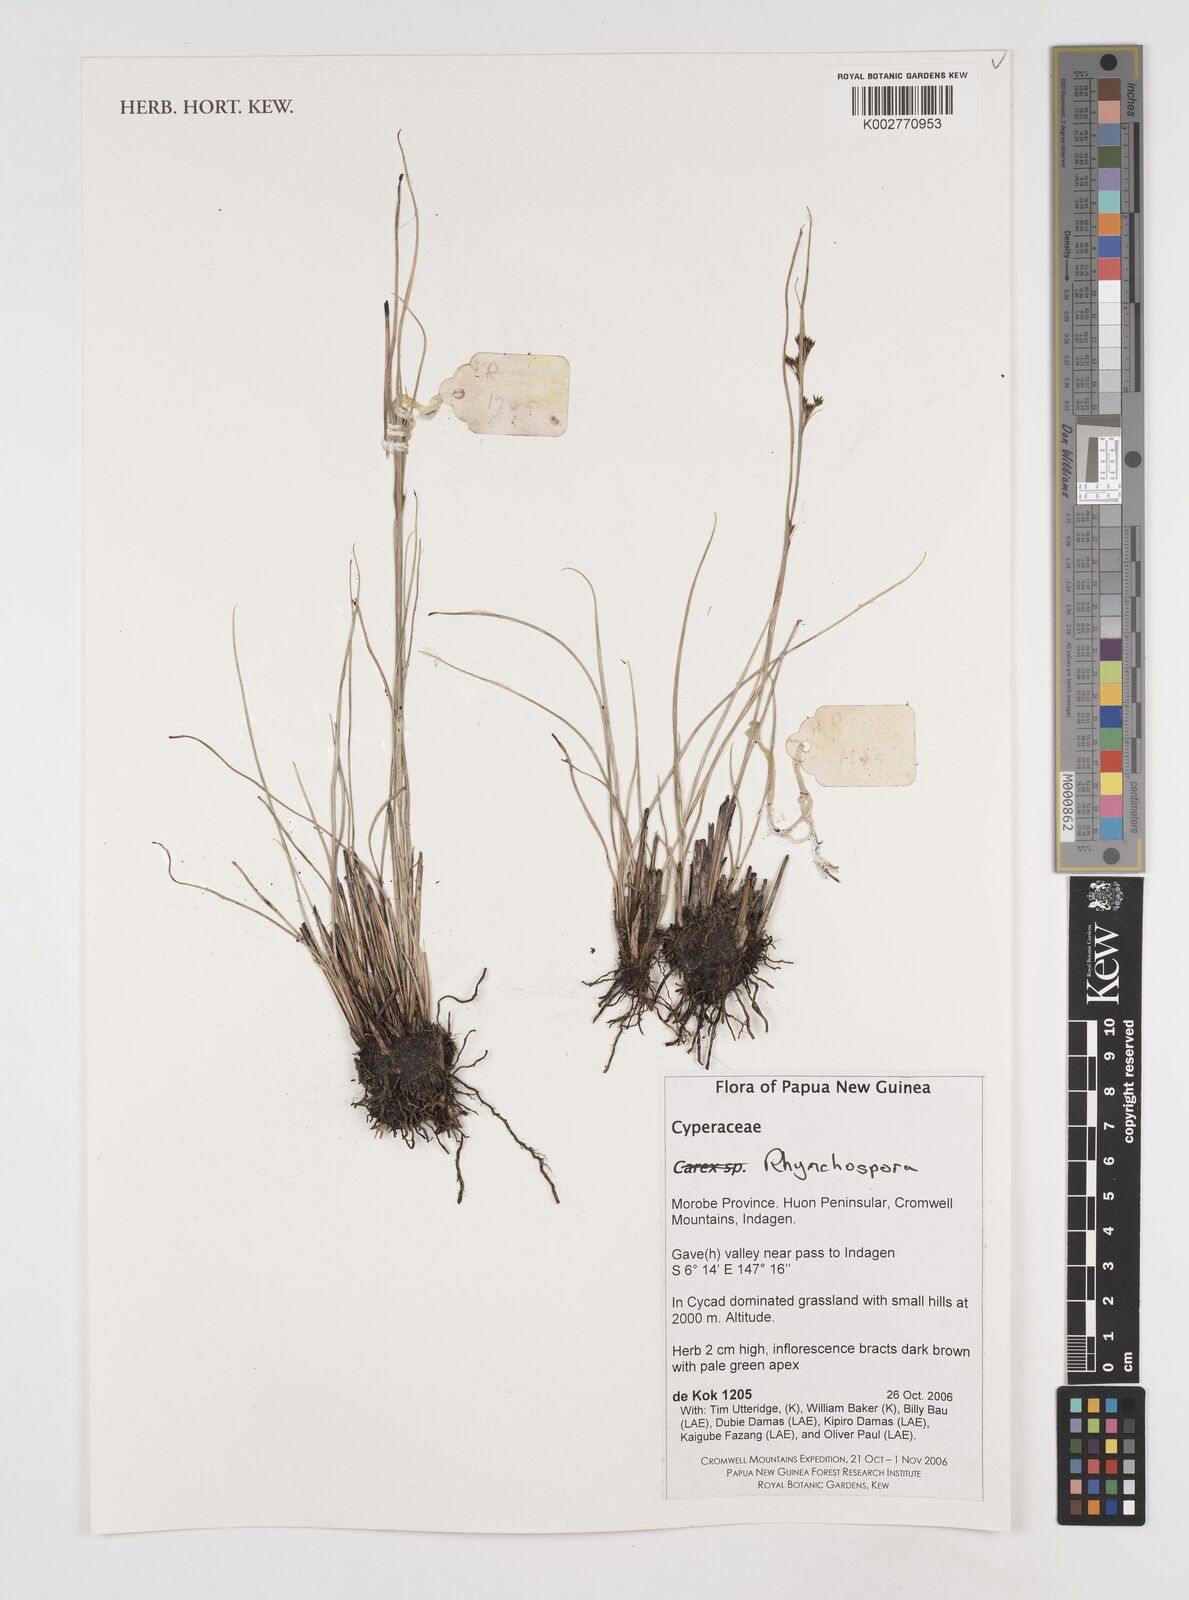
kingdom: Plantae
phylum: Tracheophyta
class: Liliopsida
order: Poales
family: Cyperaceae
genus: Rhynchospora
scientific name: Rhynchospora
